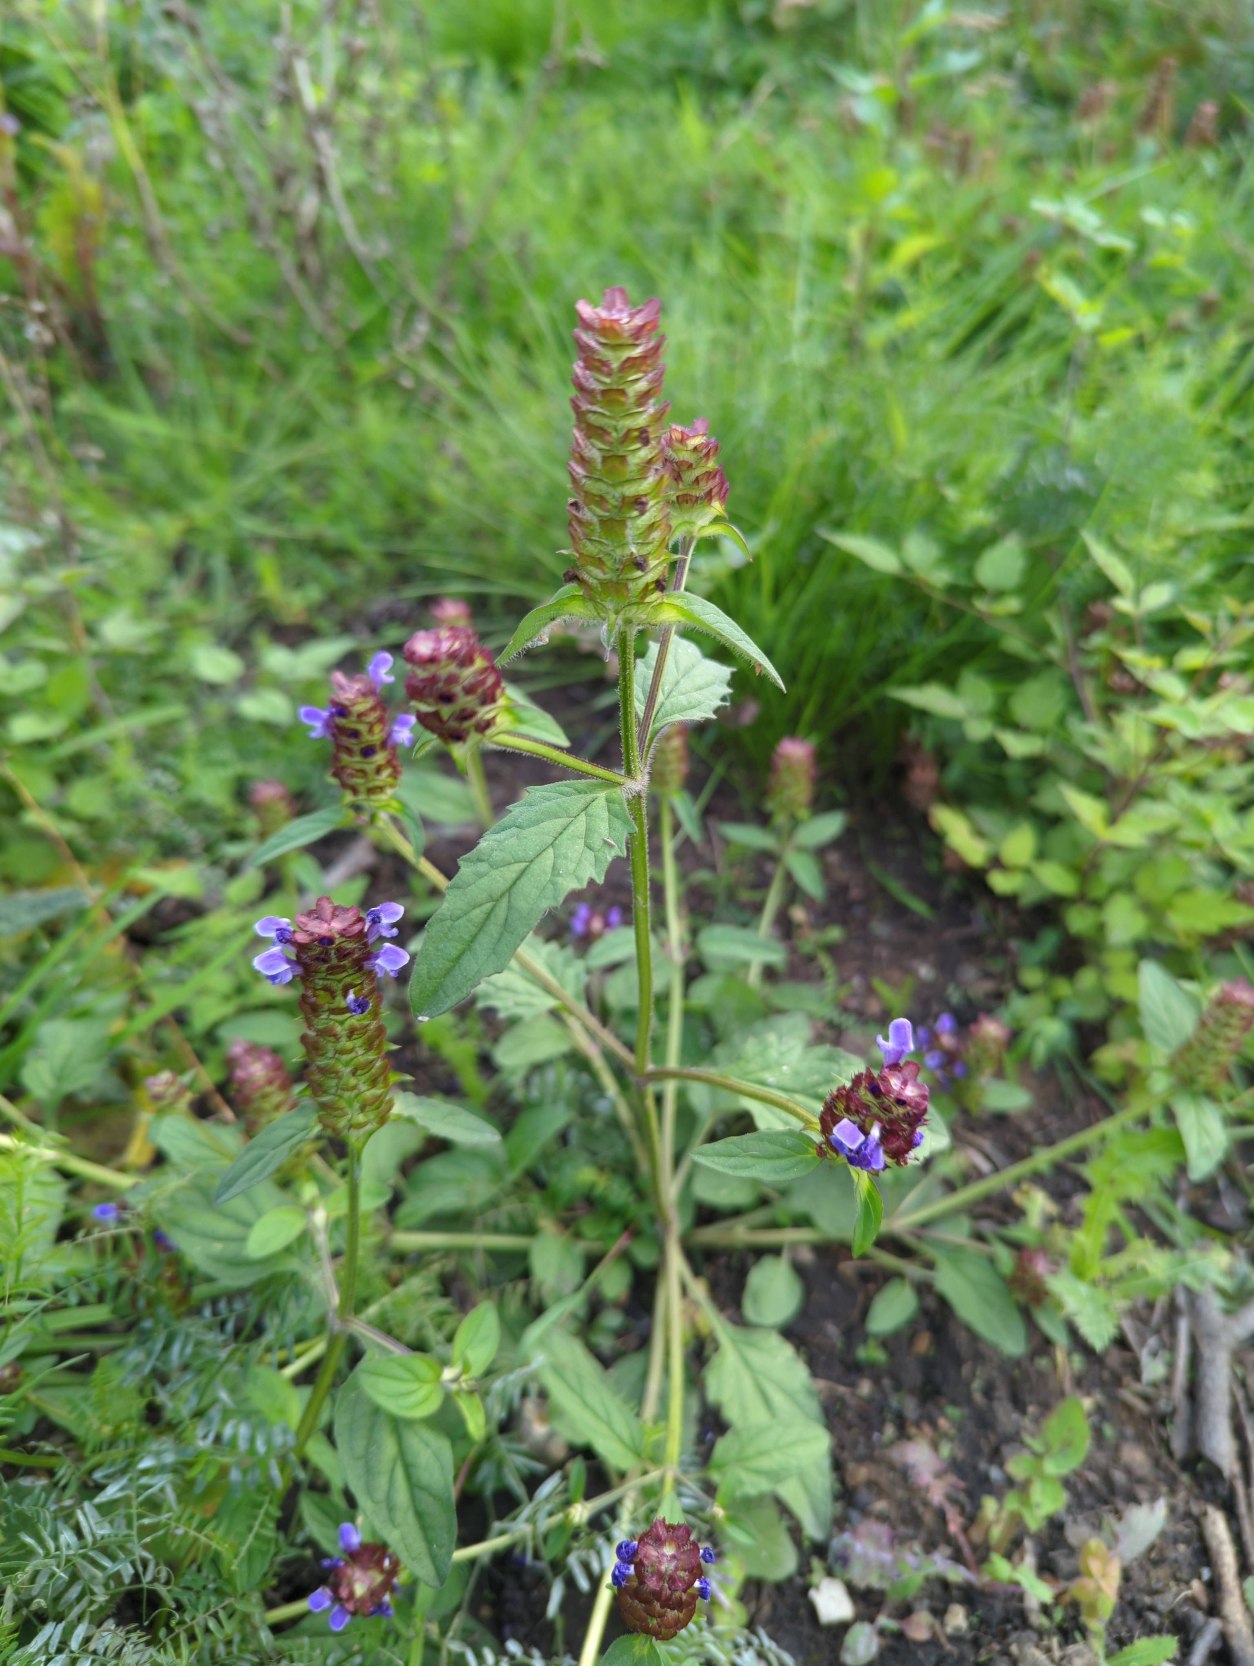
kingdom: Plantae
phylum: Tracheophyta
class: Magnoliopsida
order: Lamiales
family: Lamiaceae
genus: Prunella
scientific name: Prunella vulgaris
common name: Almindelig brunelle
